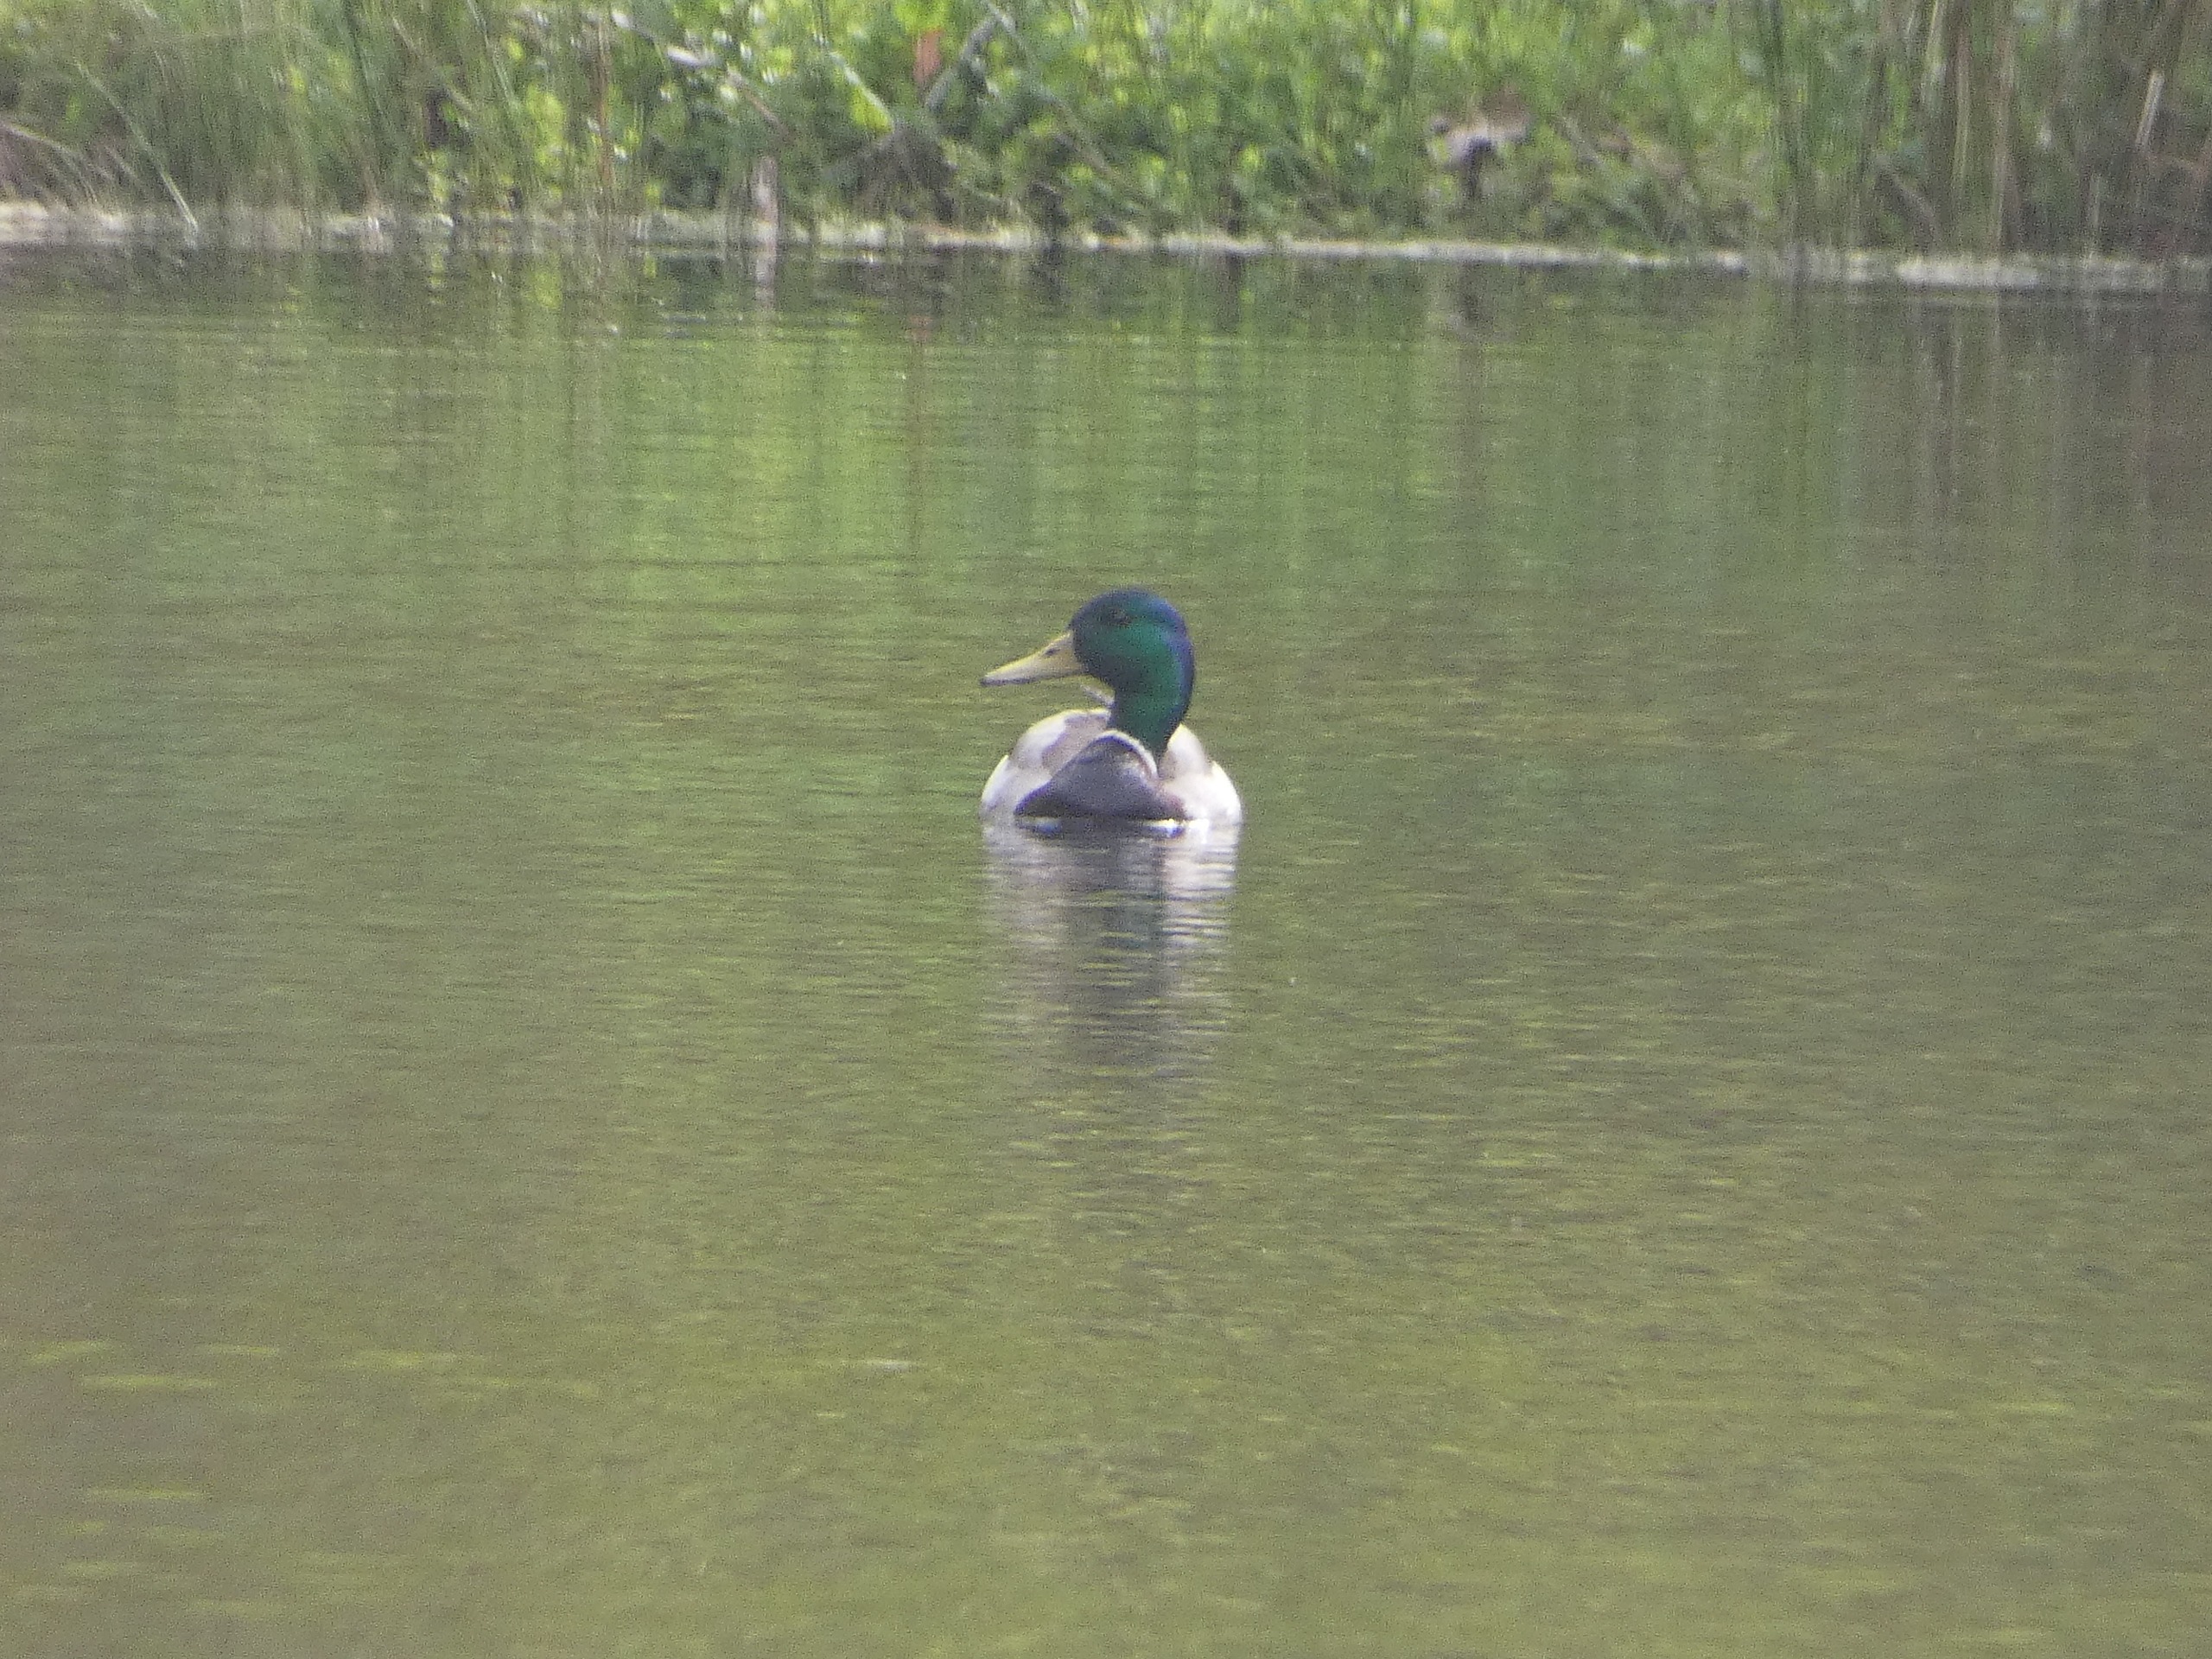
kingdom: Animalia
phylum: Chordata
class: Aves
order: Anseriformes
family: Anatidae
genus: Anas
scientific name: Anas platyrhynchos
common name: Gråand
